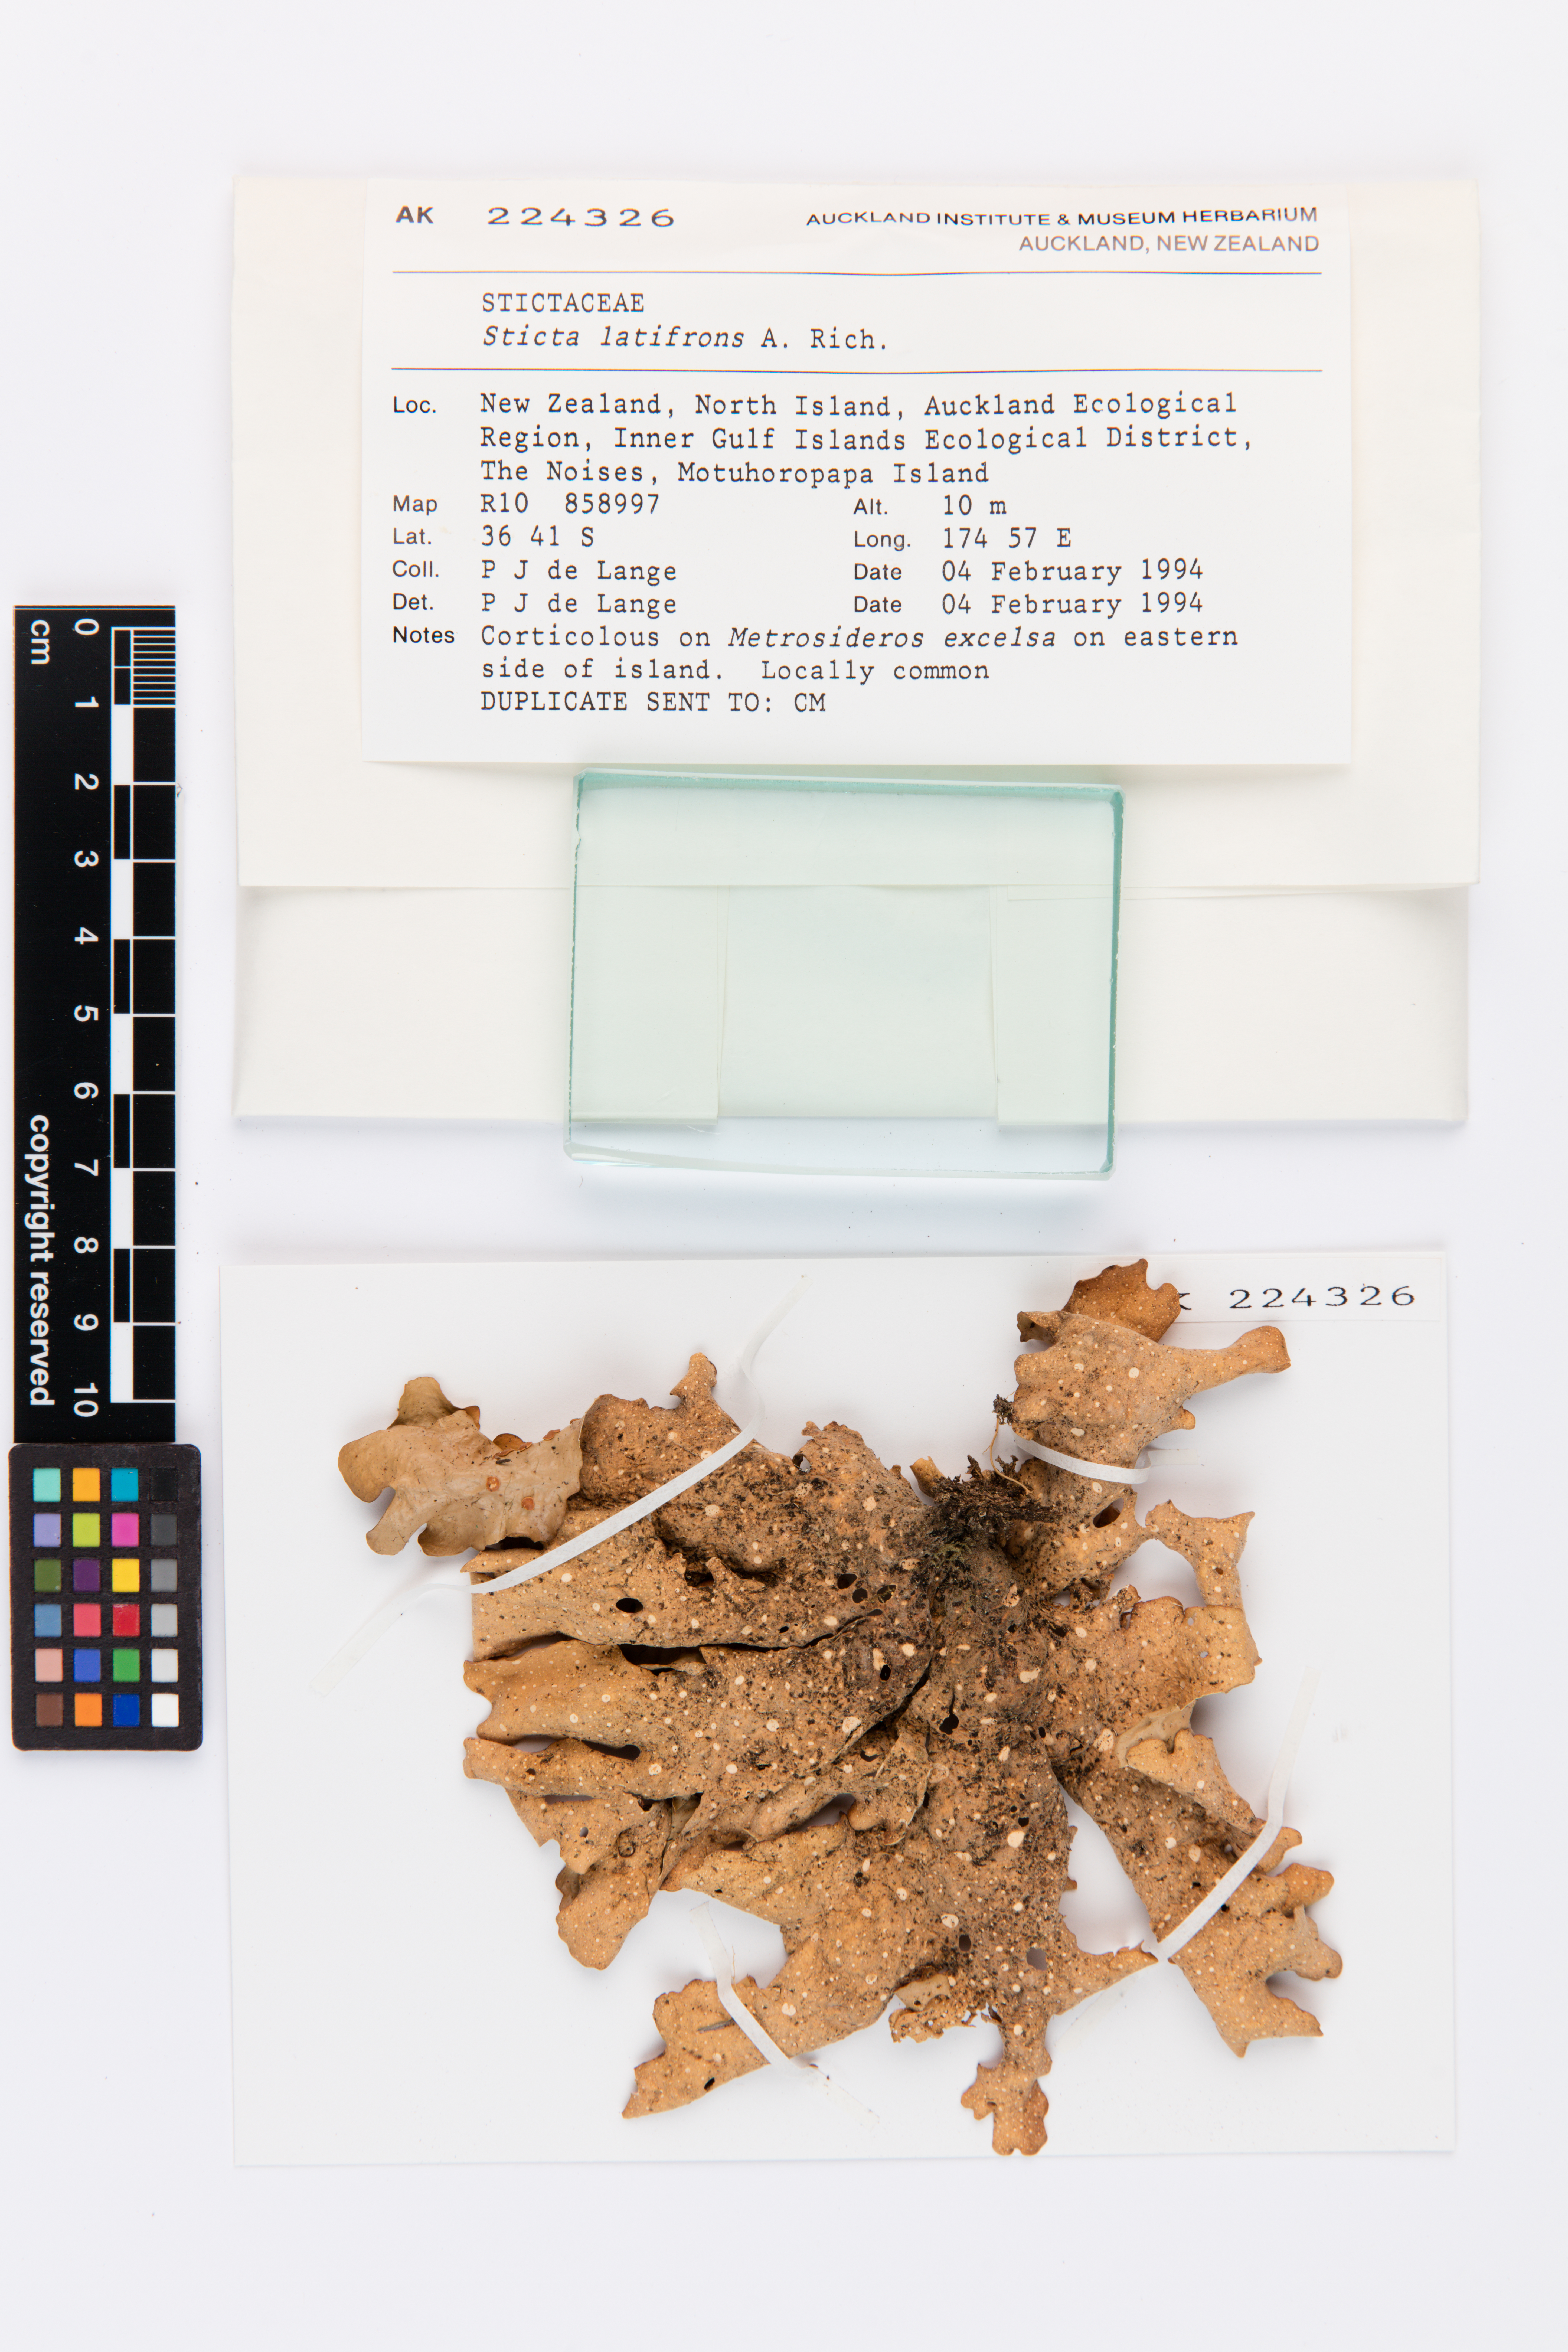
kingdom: Fungi
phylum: Ascomycota
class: Lecanoromycetes
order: Peltigerales
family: Lobariaceae
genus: Sticta
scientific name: Sticta latifrons
